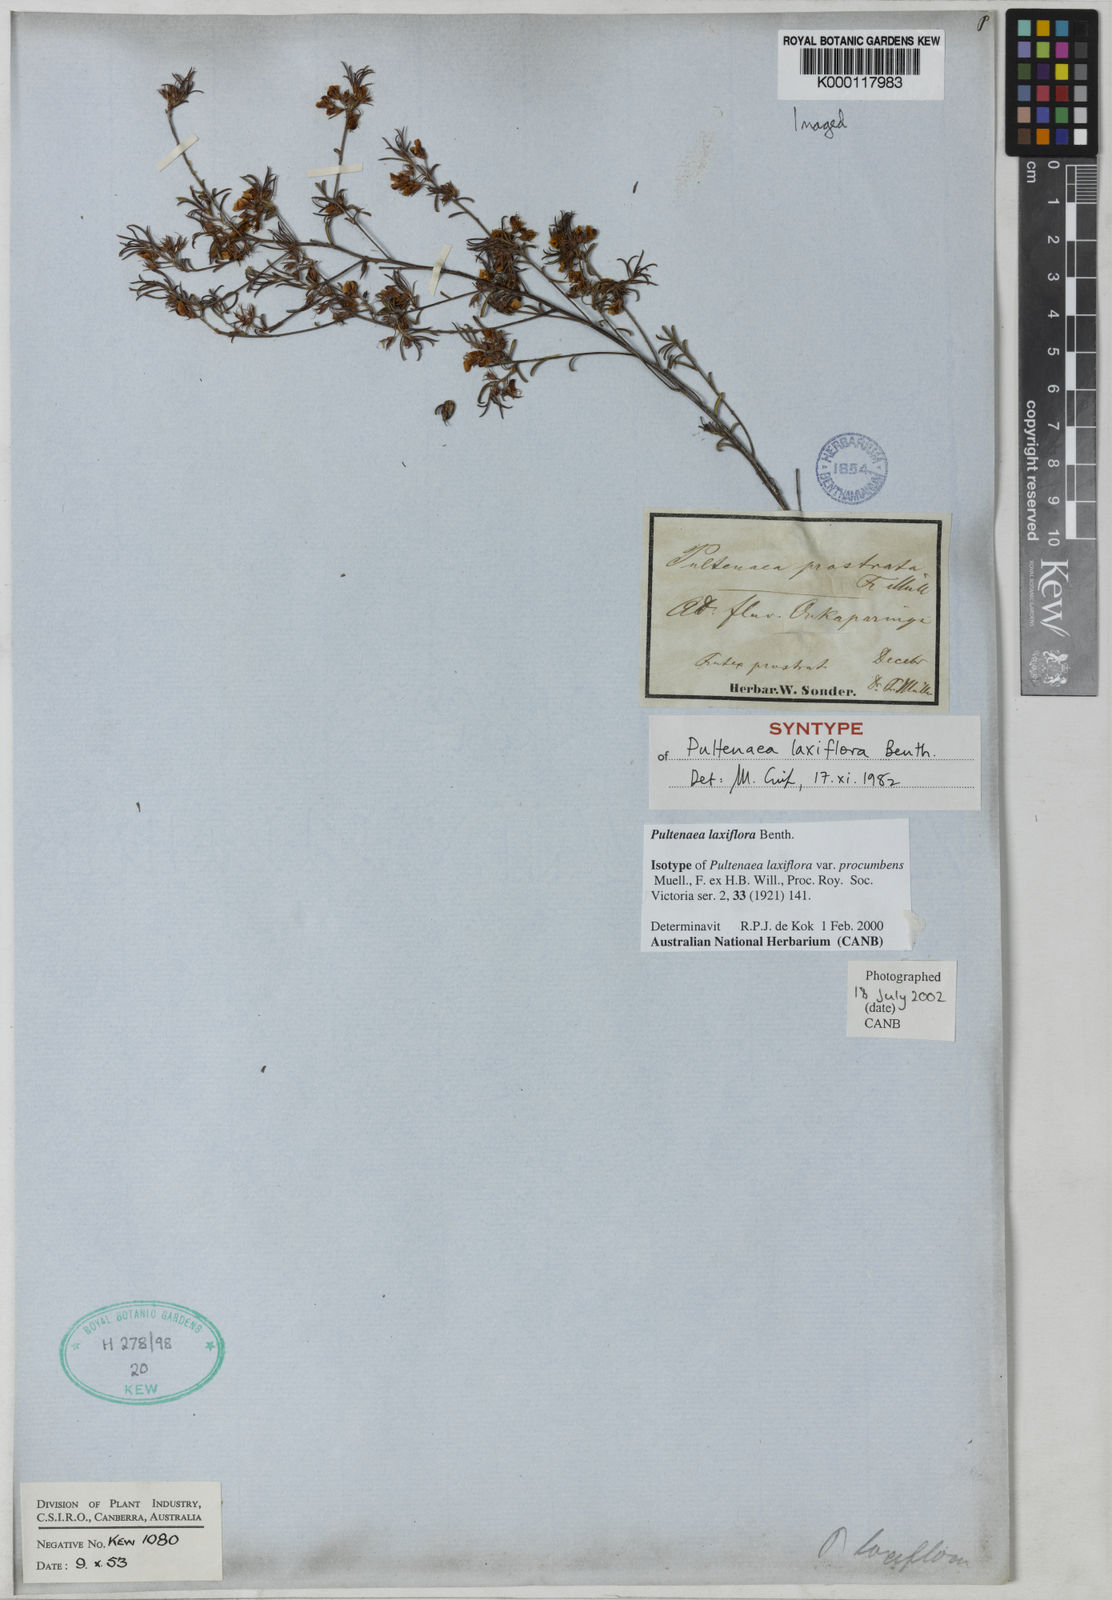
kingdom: Plantae
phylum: Tracheophyta
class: Magnoliopsida
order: Fabales
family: Fabaceae
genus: Pultenaea
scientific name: Pultenaea laxiflora
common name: Loose-flower bush-pea
